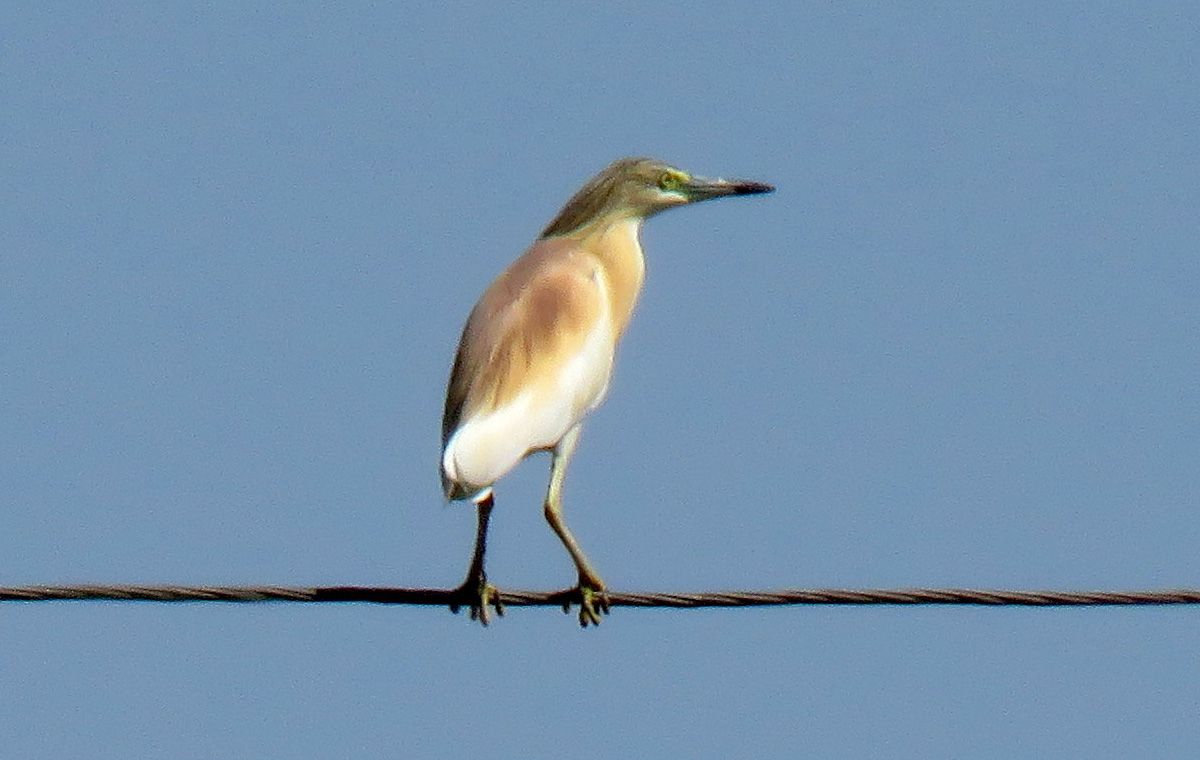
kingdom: Animalia
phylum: Chordata
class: Aves
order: Pelecaniformes
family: Ardeidae
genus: Ardeola
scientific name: Ardeola ralloides
